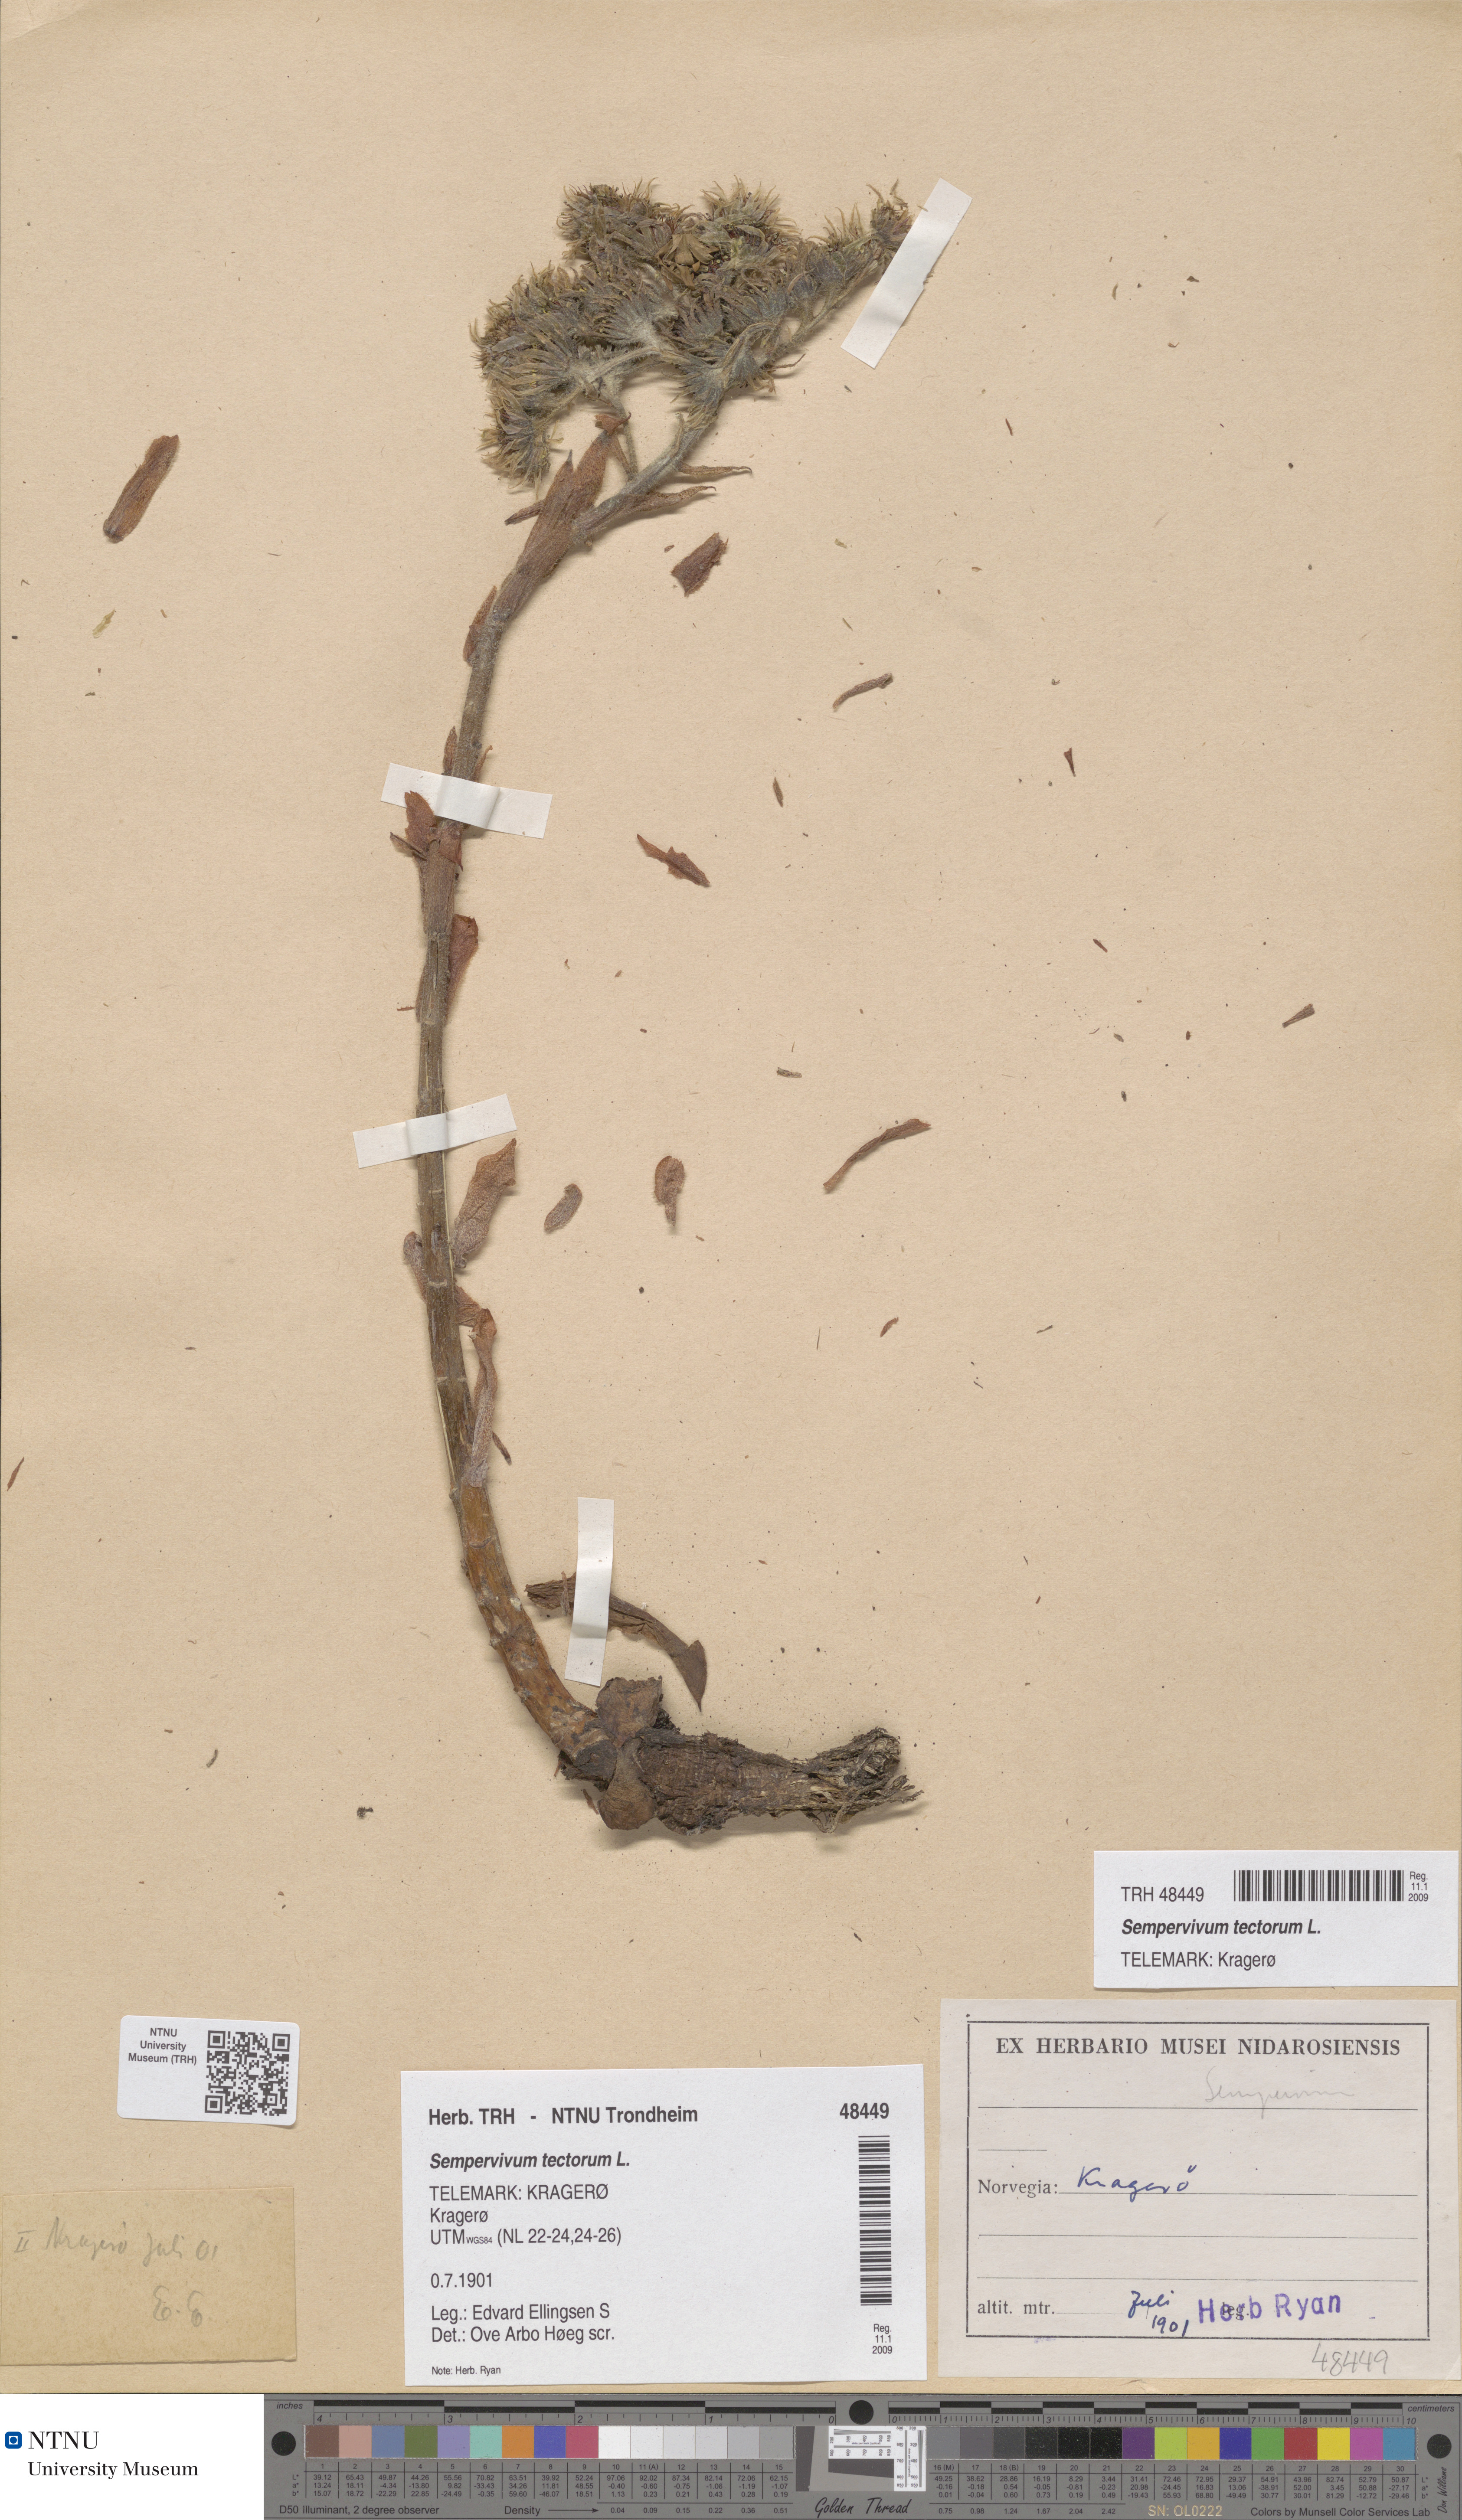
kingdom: Plantae
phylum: Tracheophyta
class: Magnoliopsida
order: Saxifragales
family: Crassulaceae
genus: Sempervivum
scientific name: Sempervivum tectorum
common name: House-leek
